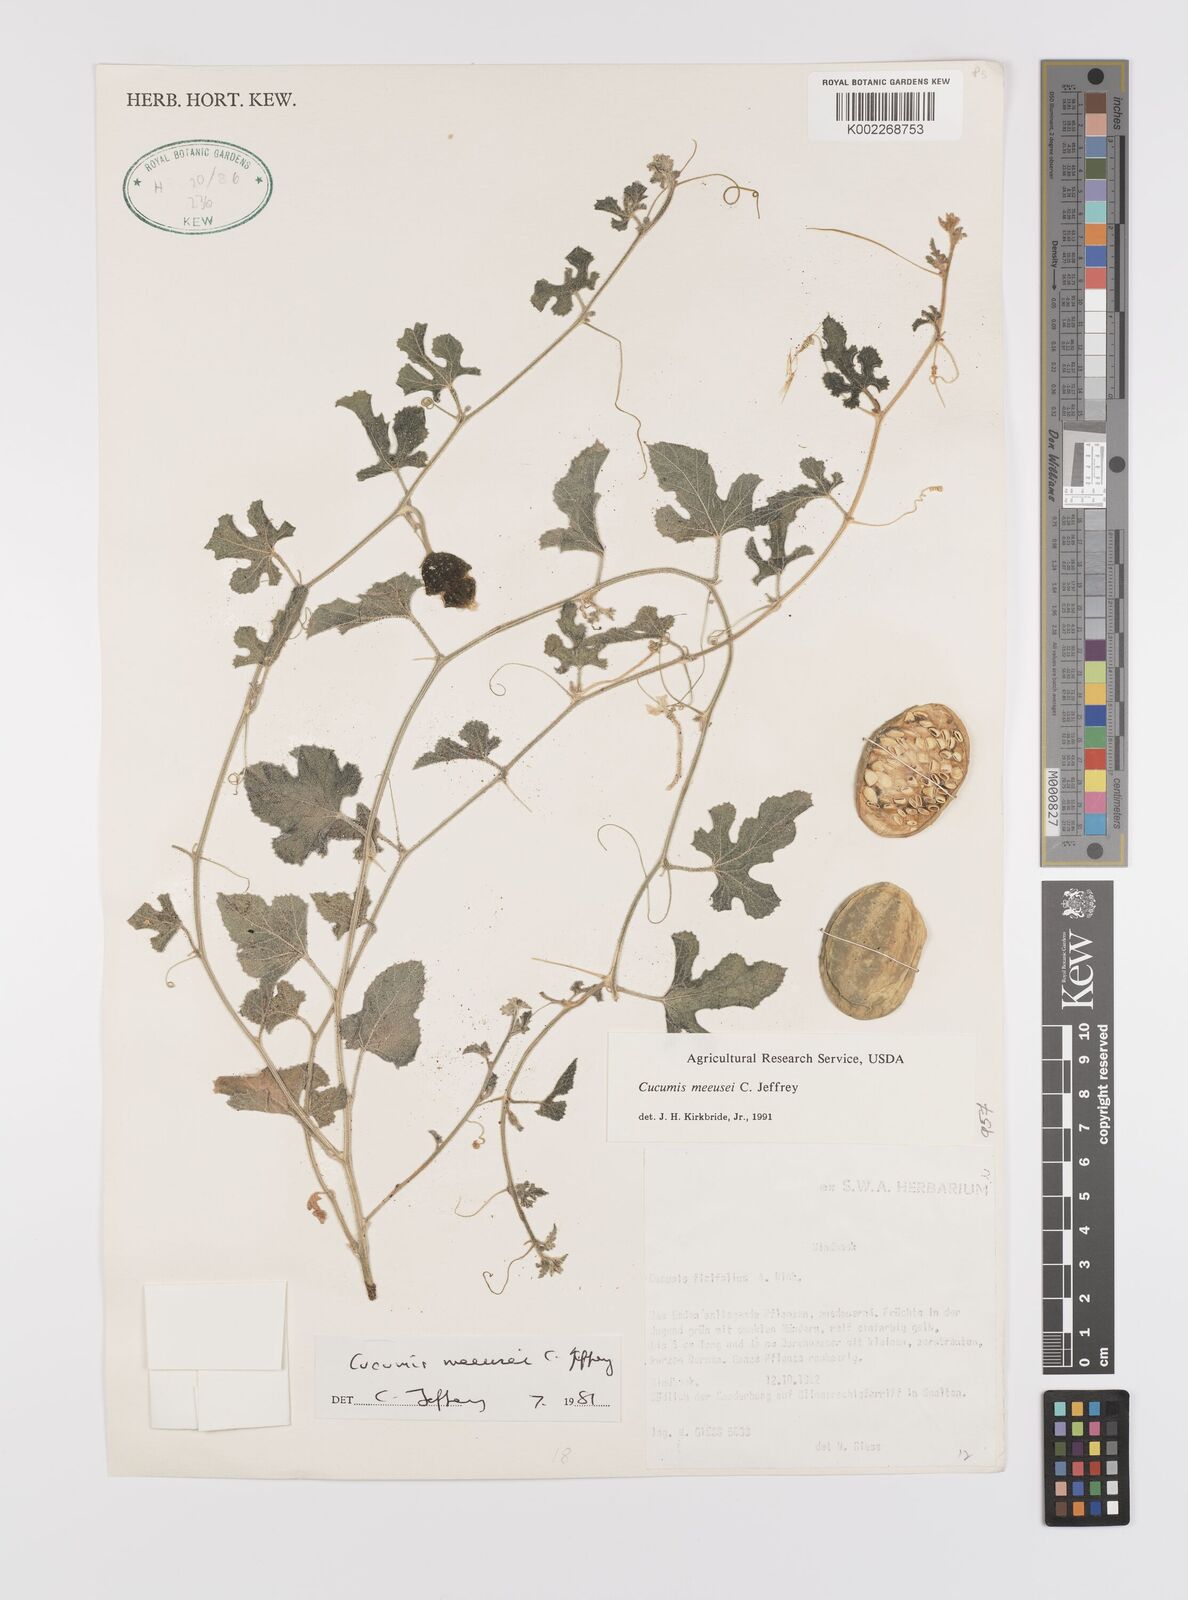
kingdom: Plantae
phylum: Tracheophyta
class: Magnoliopsida
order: Cucurbitales
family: Cucurbitaceae
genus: Cucumis
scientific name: Cucumis meeusei
